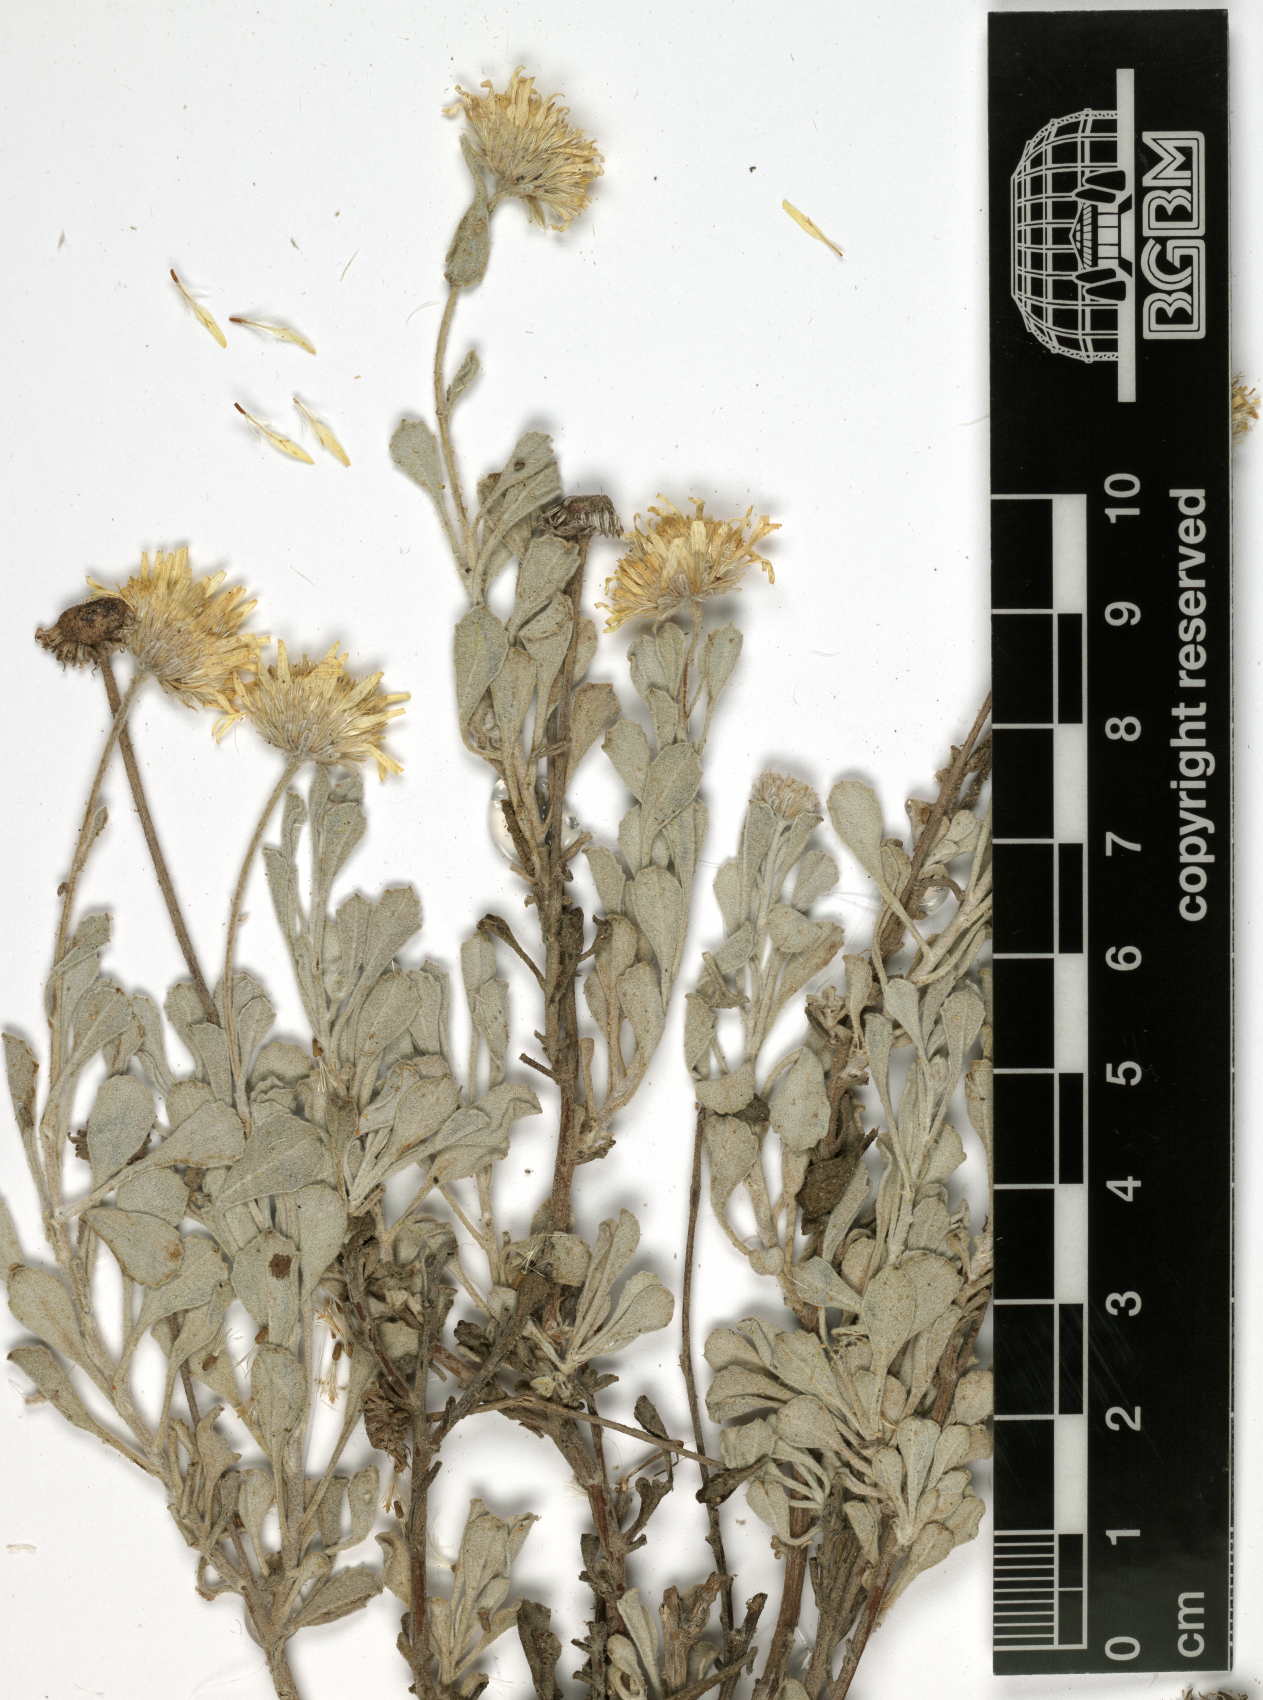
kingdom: Plantae
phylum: Tracheophyta
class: Magnoliopsida
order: Asterales
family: Asteraceae
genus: Pulicaria
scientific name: Pulicaria argyrophylla
